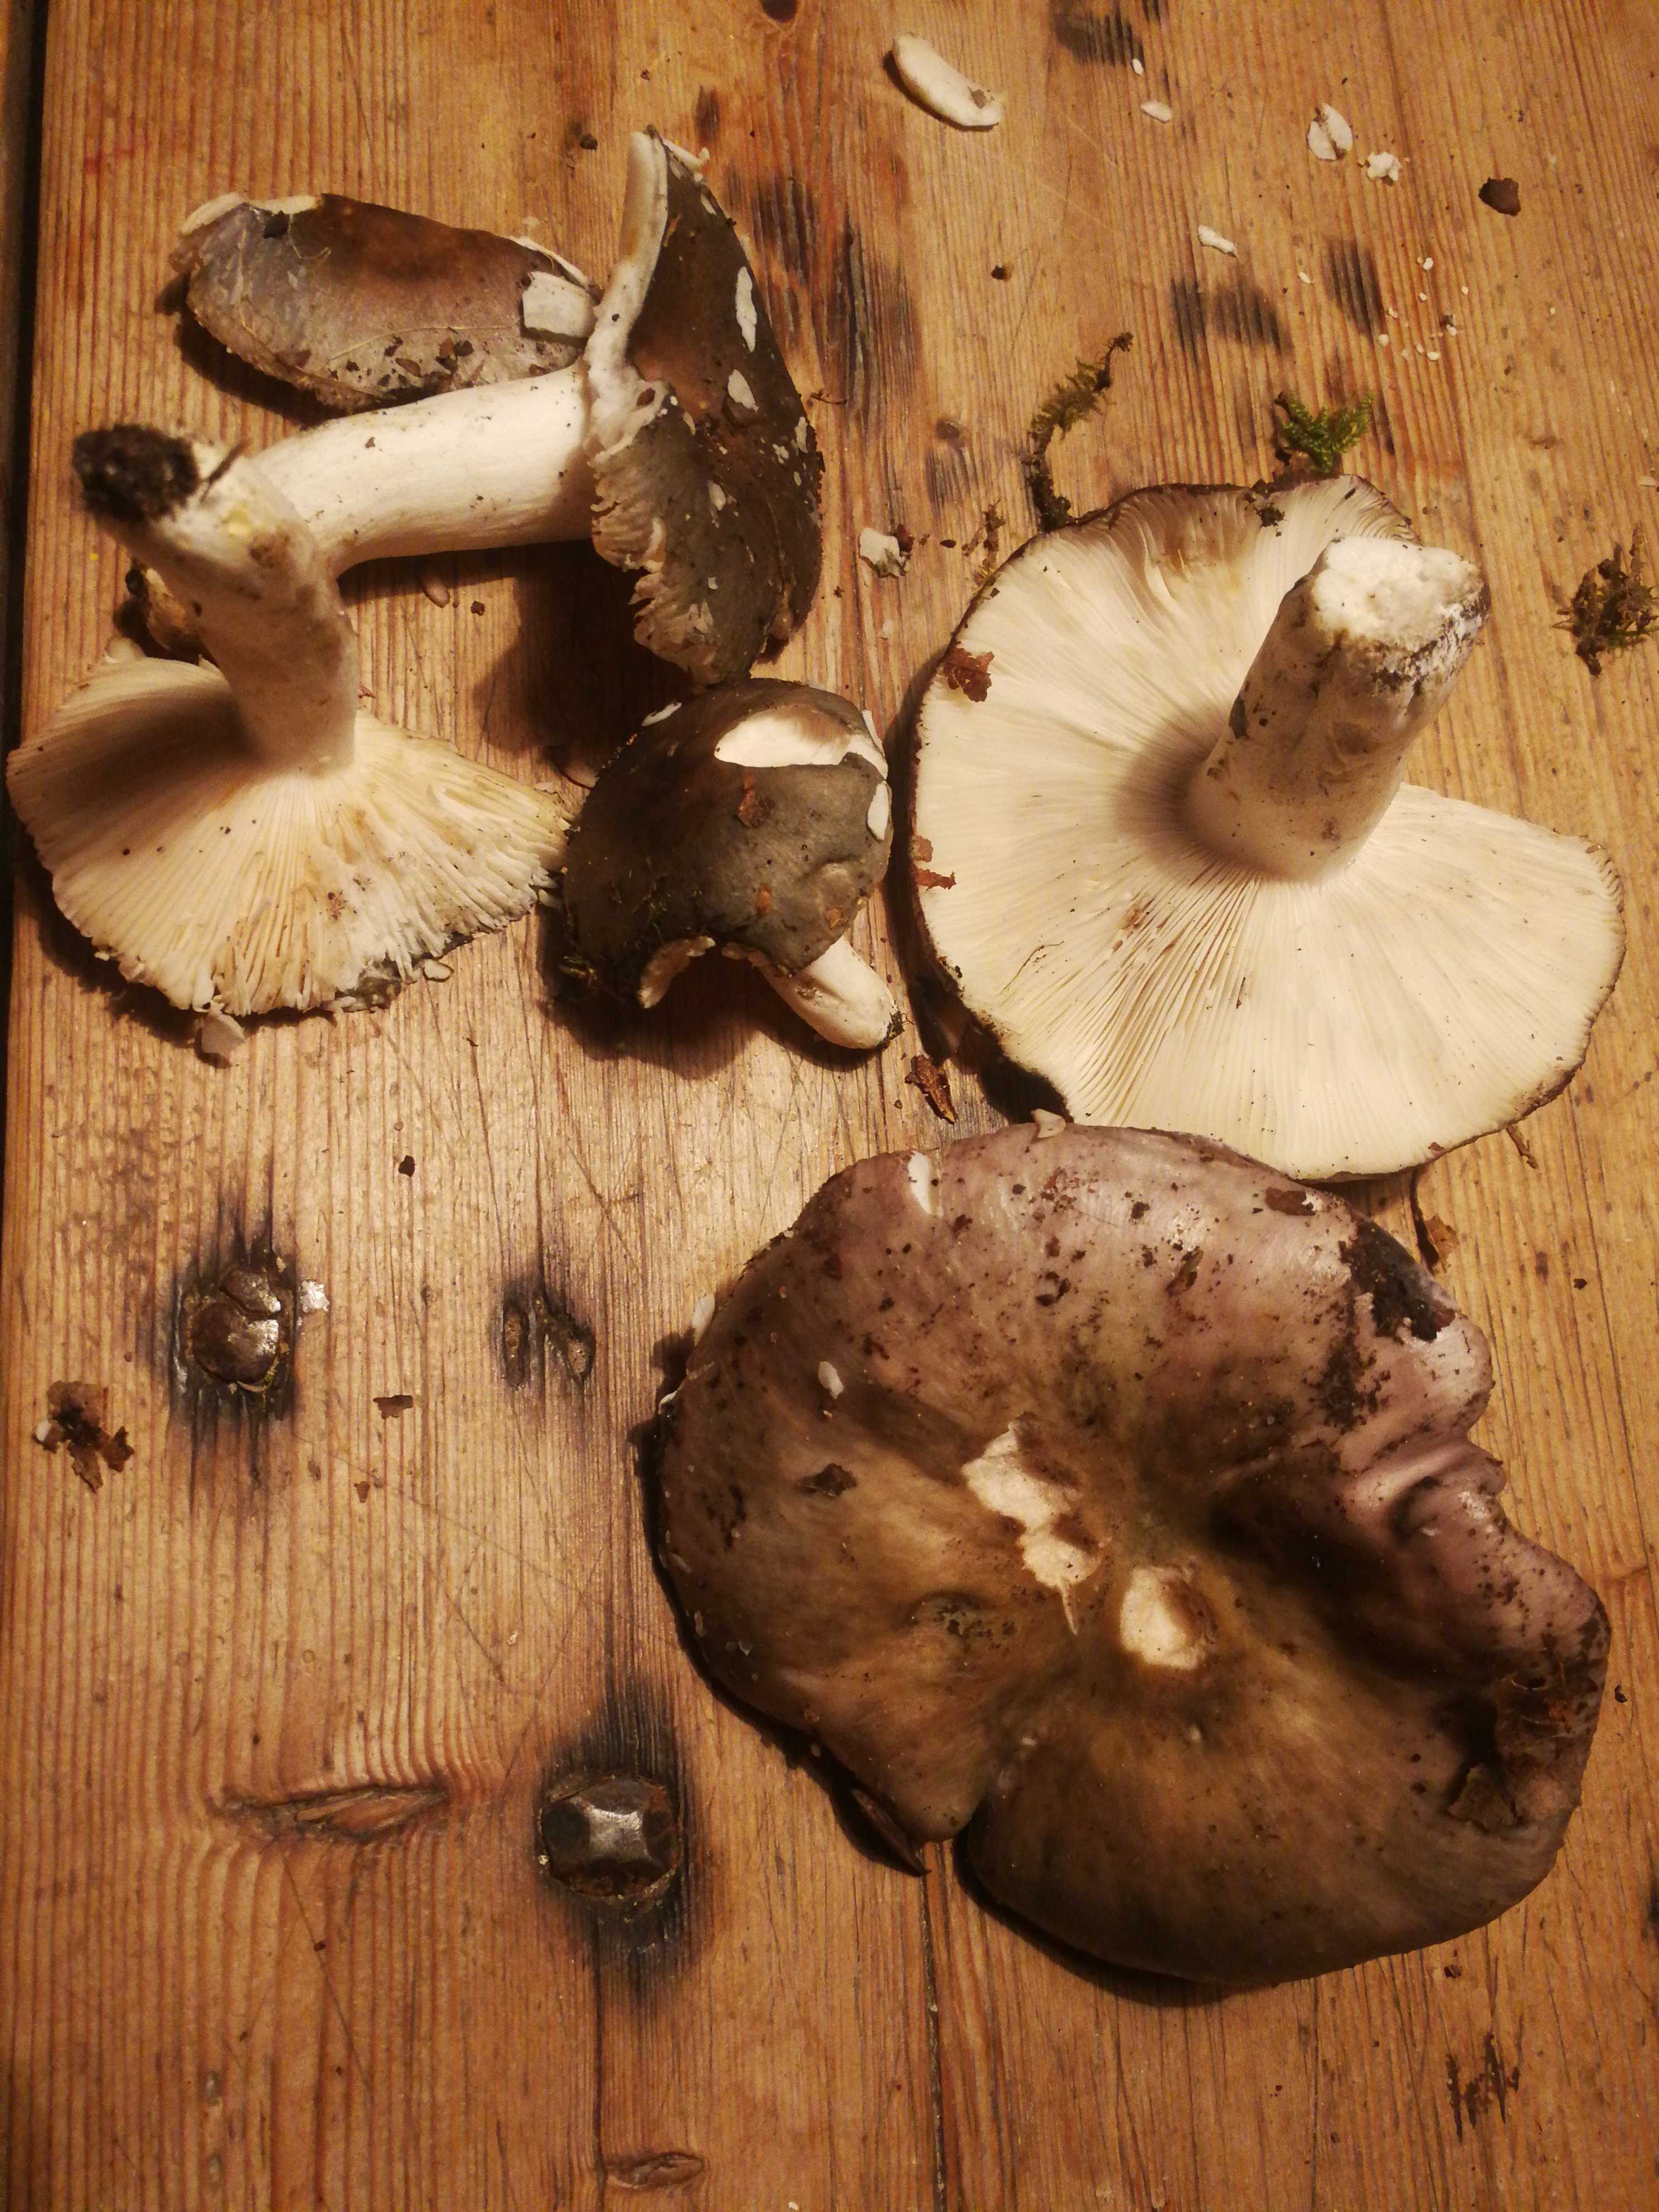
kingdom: Fungi
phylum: Basidiomycota
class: Agaricomycetes
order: Russulales
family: Russulaceae
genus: Russula
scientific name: Russula
